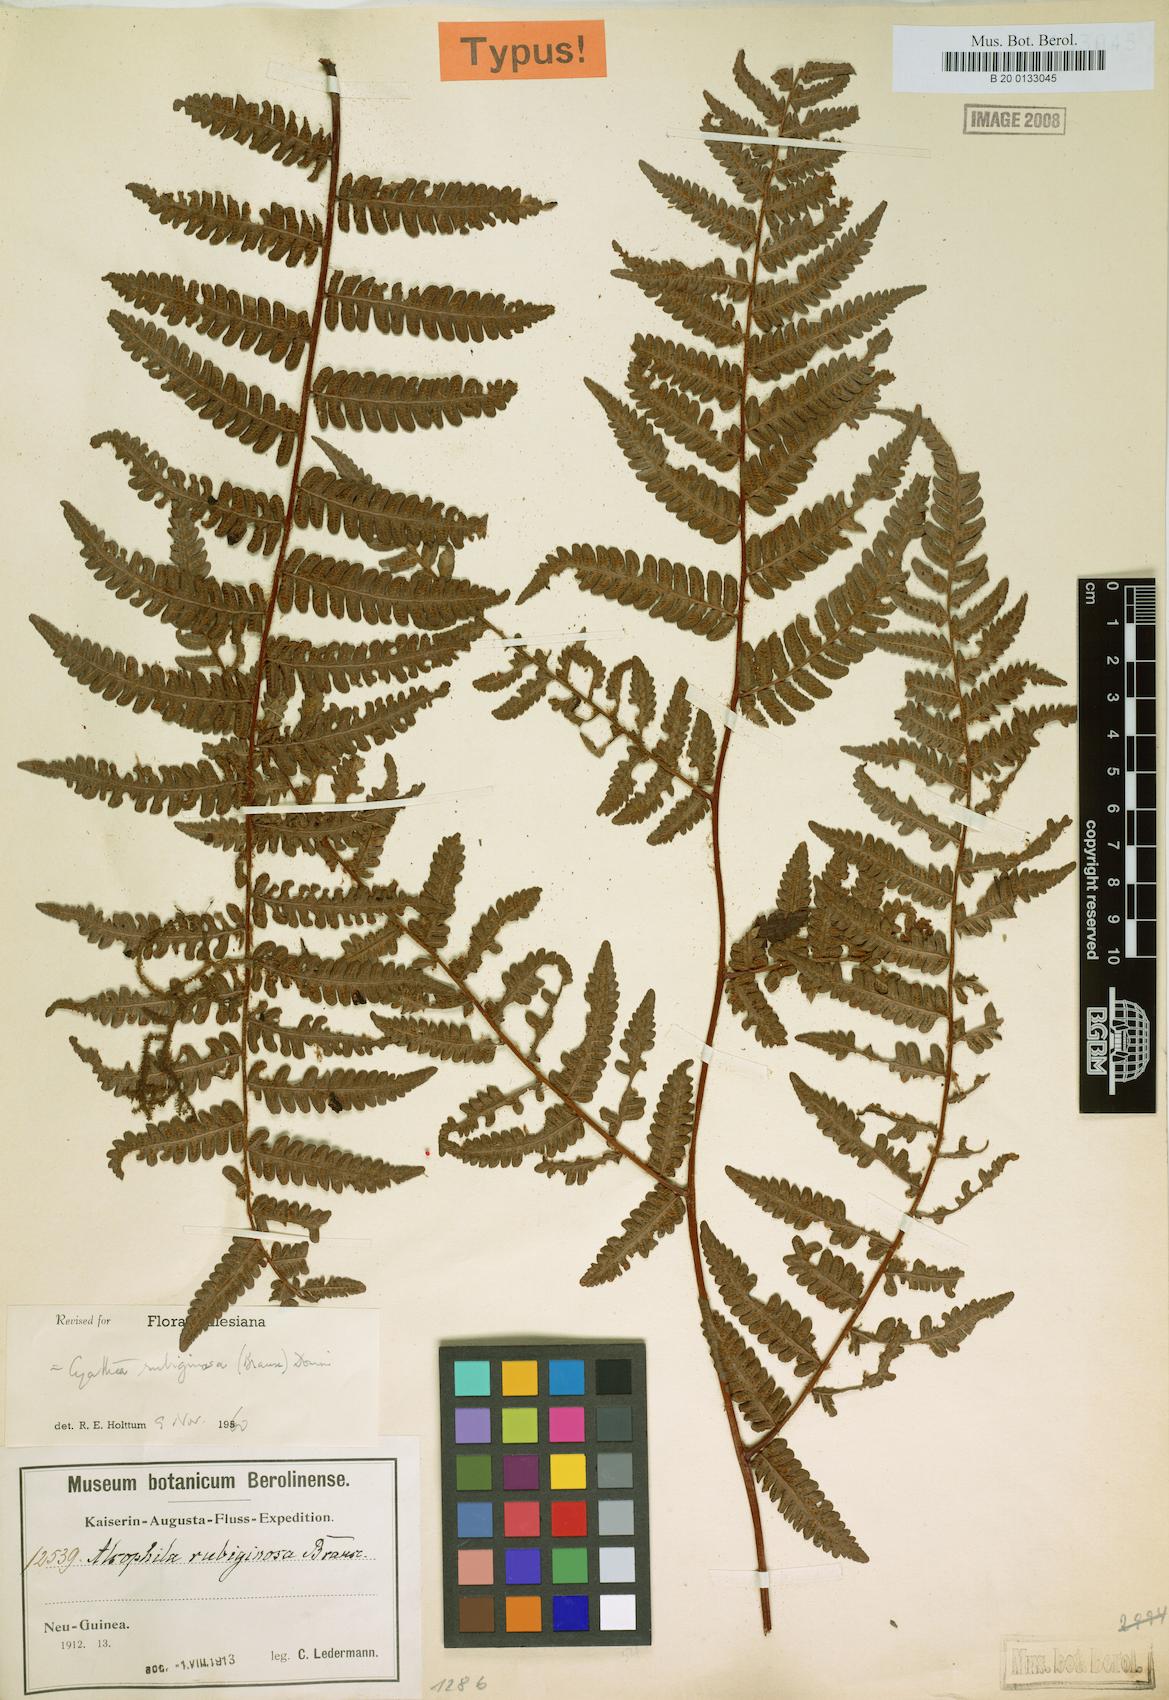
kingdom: Plantae
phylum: Tracheophyta
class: Polypodiopsida
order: Cyatheales
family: Cyatheaceae
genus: Alsophila
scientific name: Alsophila rubiginosa
